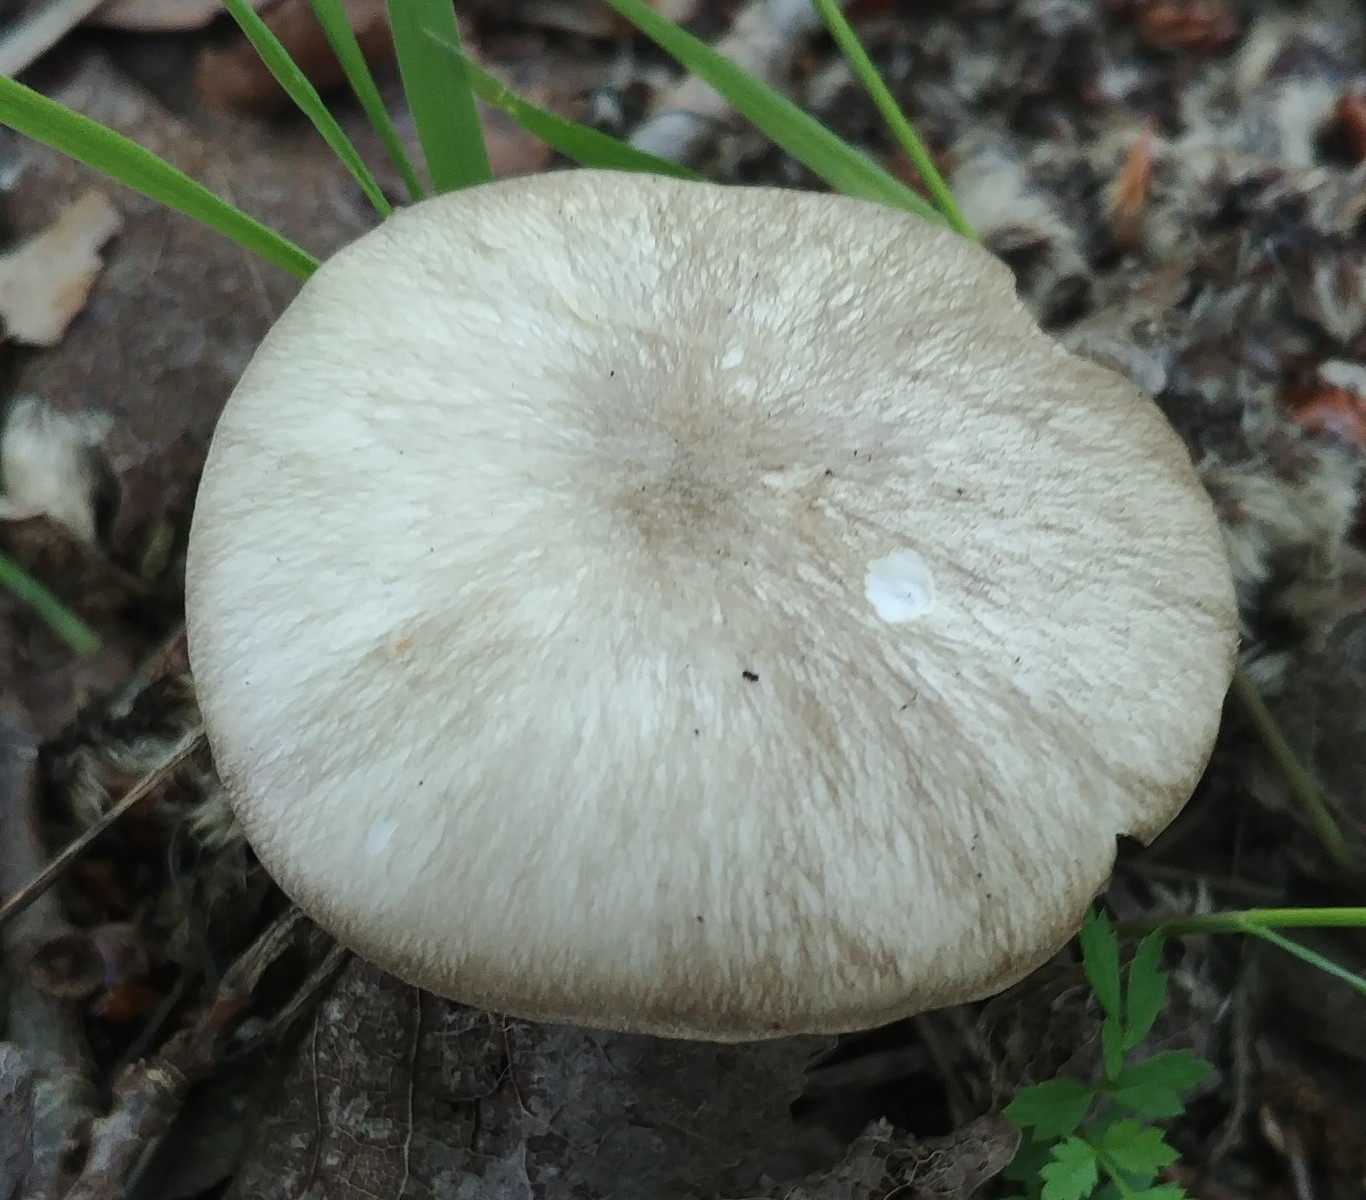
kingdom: Fungi
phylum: Basidiomycota
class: Agaricomycetes
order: Agaricales
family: Tricholomataceae
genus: Megacollybia
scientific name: Megacollybia platyphylla
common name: bredbladet væbnerhat
